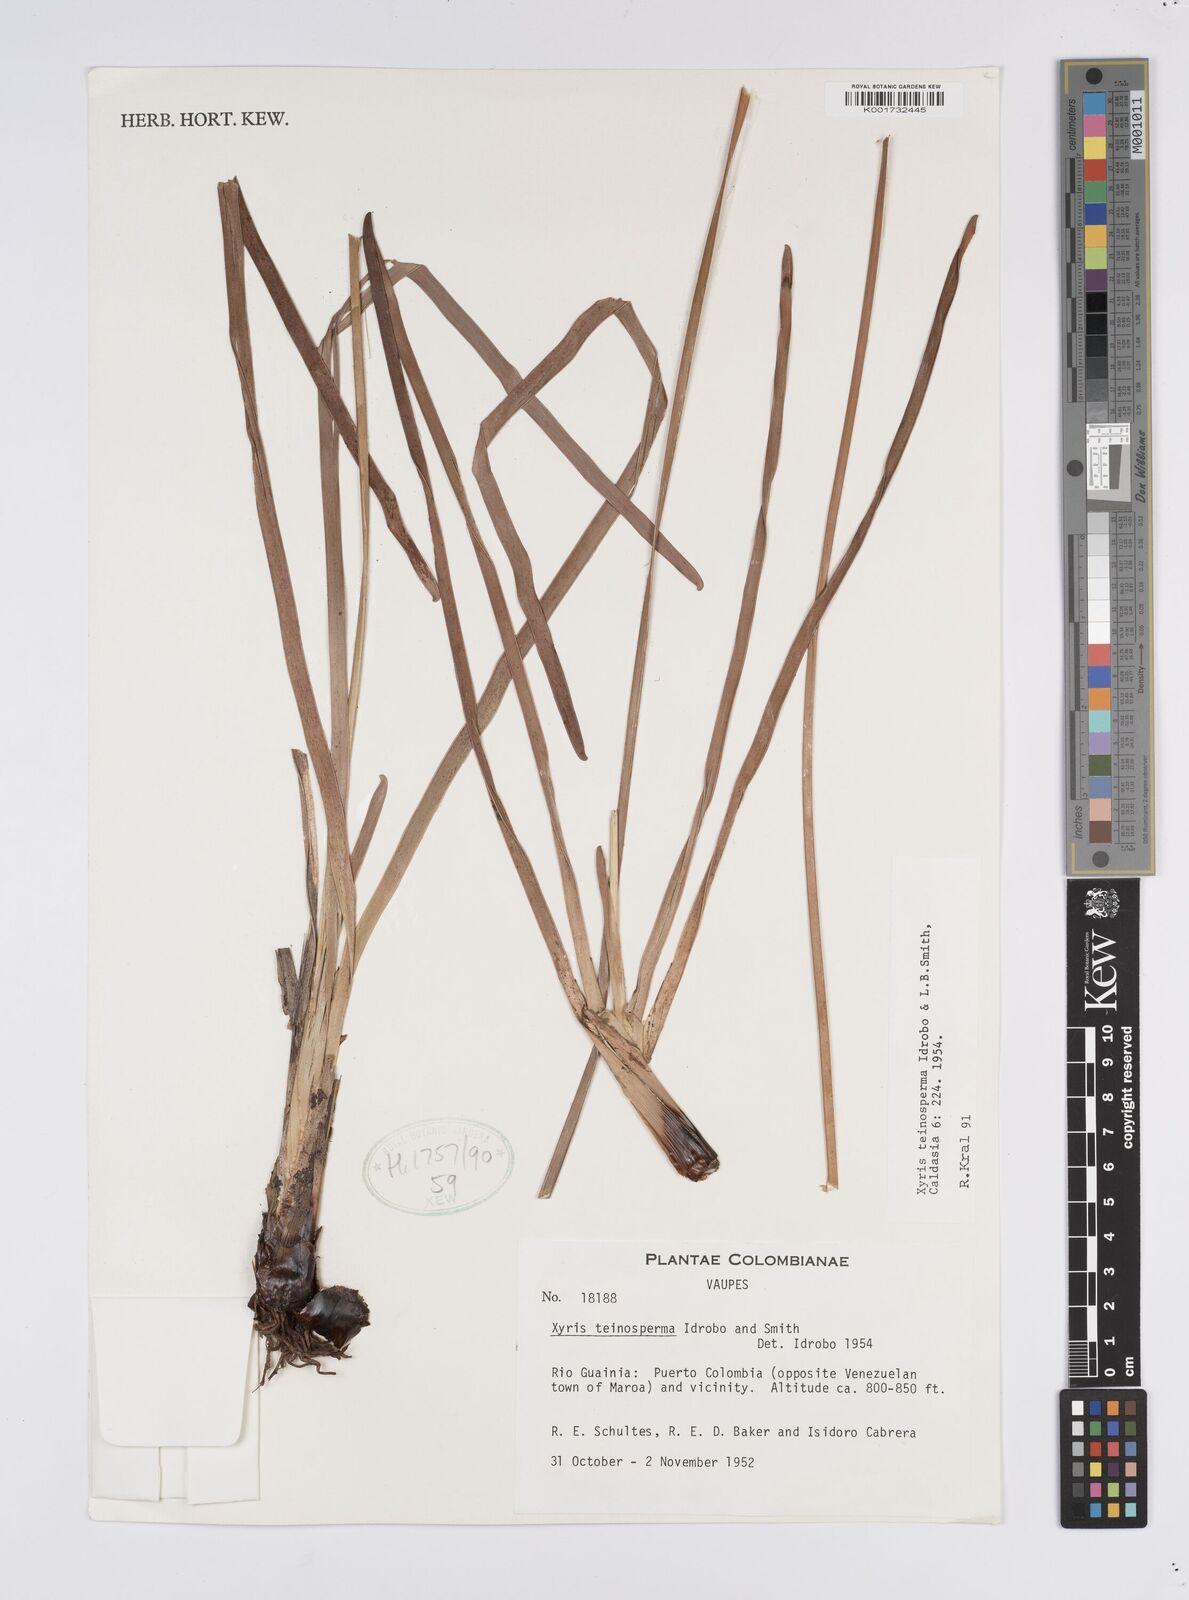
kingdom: Plantae
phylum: Tracheophyta
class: Liliopsida
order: Poales
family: Xyridaceae
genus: Xyris
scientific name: Xyris teinosperma
